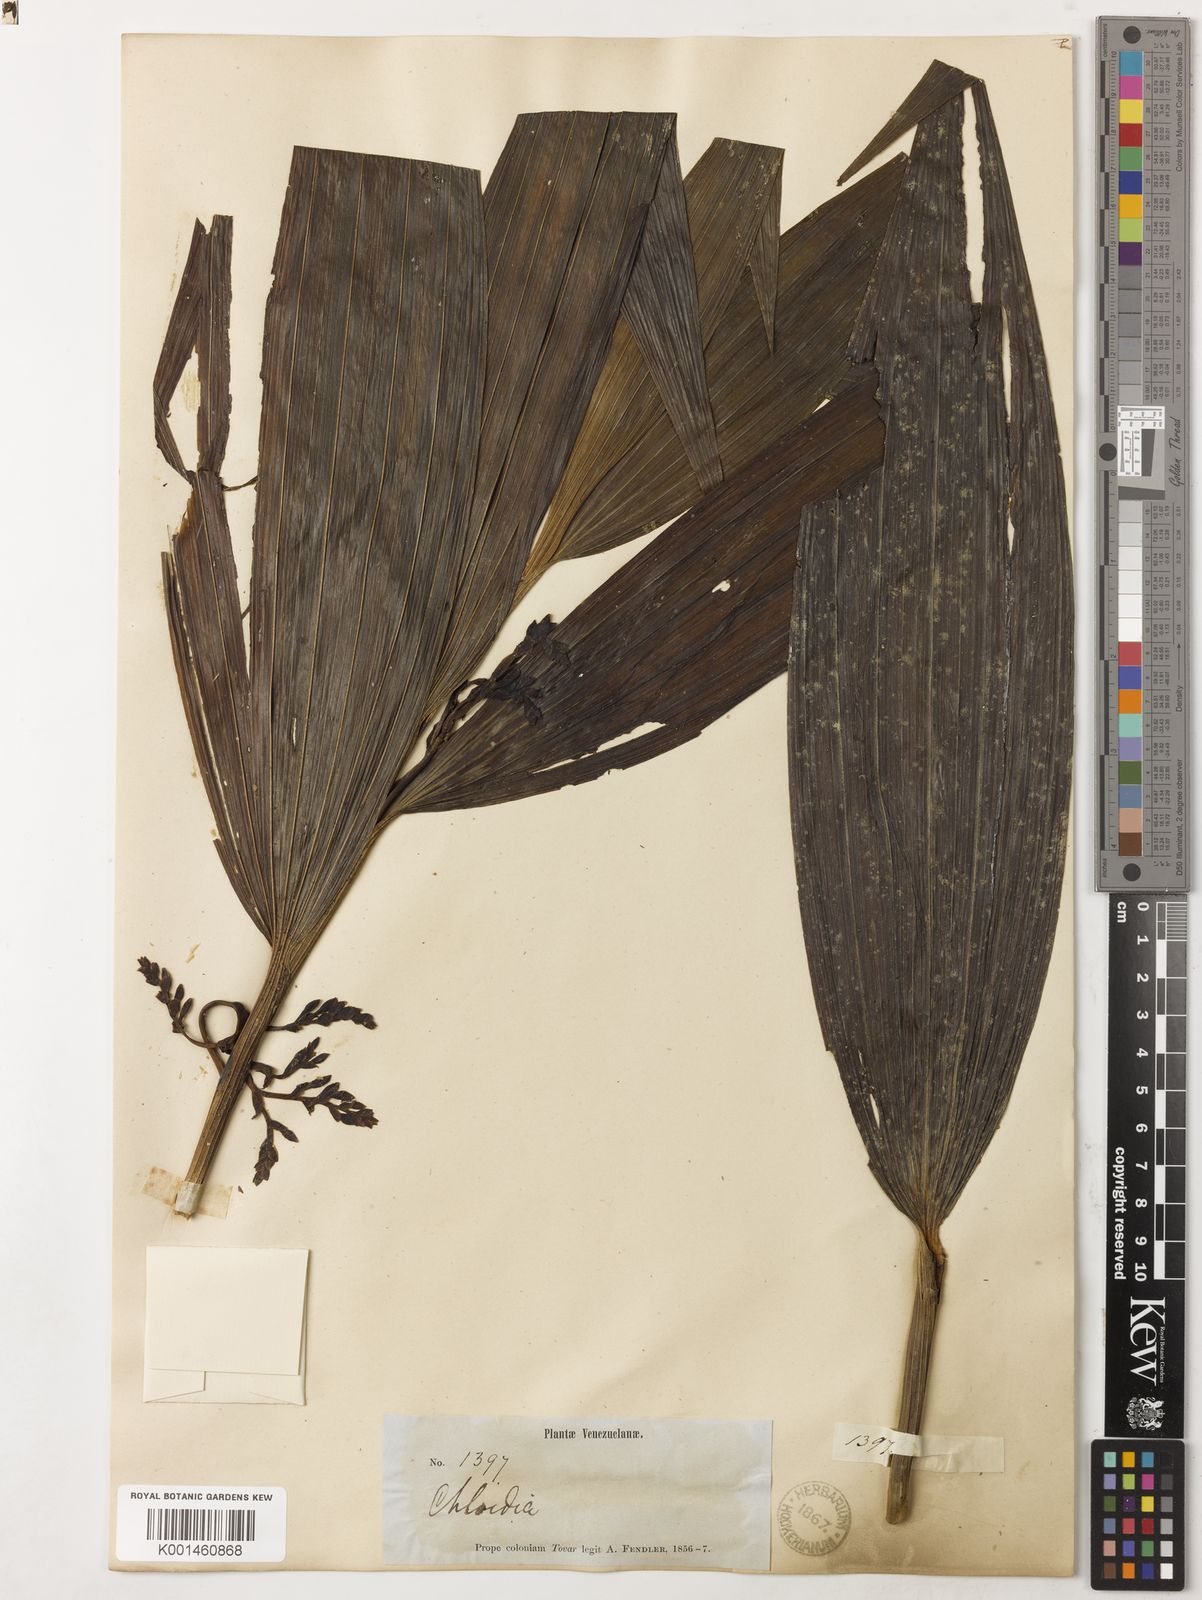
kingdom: Plantae
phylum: Tracheophyta
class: Liliopsida
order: Asparagales
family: Orchidaceae
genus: Corymborkis
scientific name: Corymborkis galipanensis
